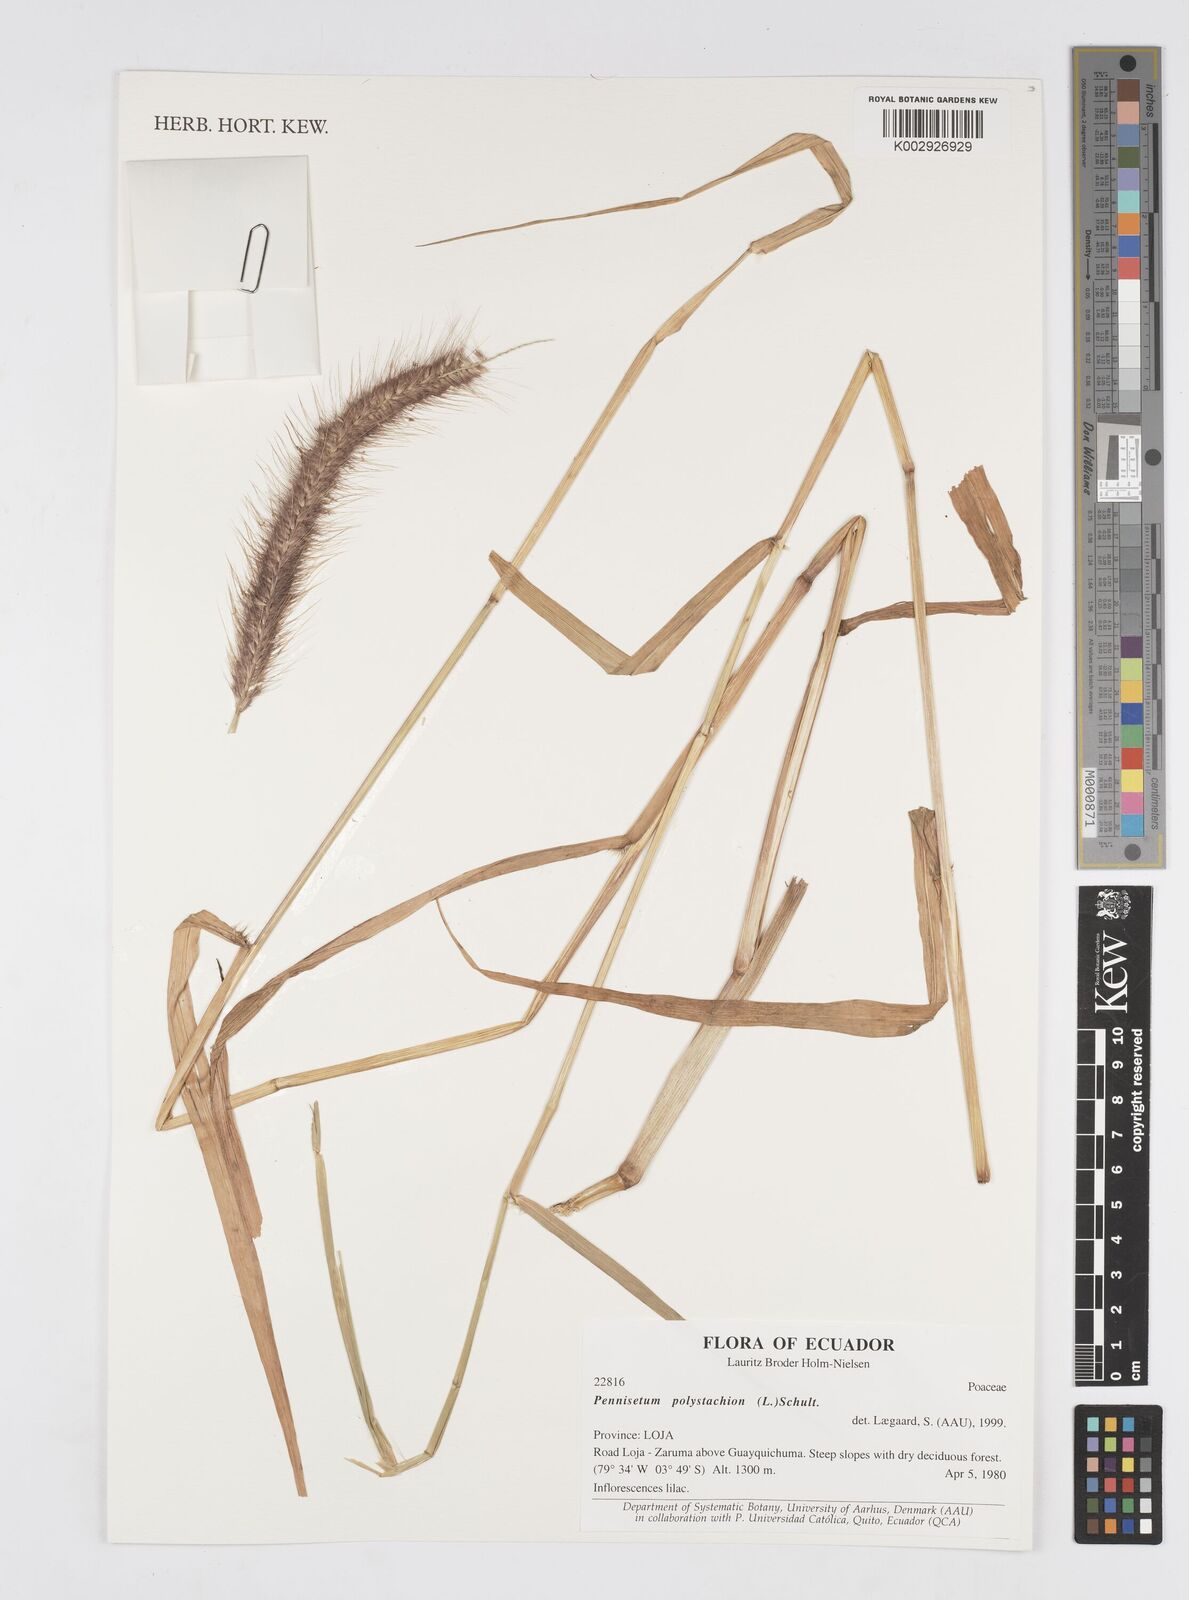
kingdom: Plantae
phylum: Tracheophyta
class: Liliopsida
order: Poales
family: Poaceae
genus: Setaria
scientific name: Setaria parviflora
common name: Knotroot bristle-grass
